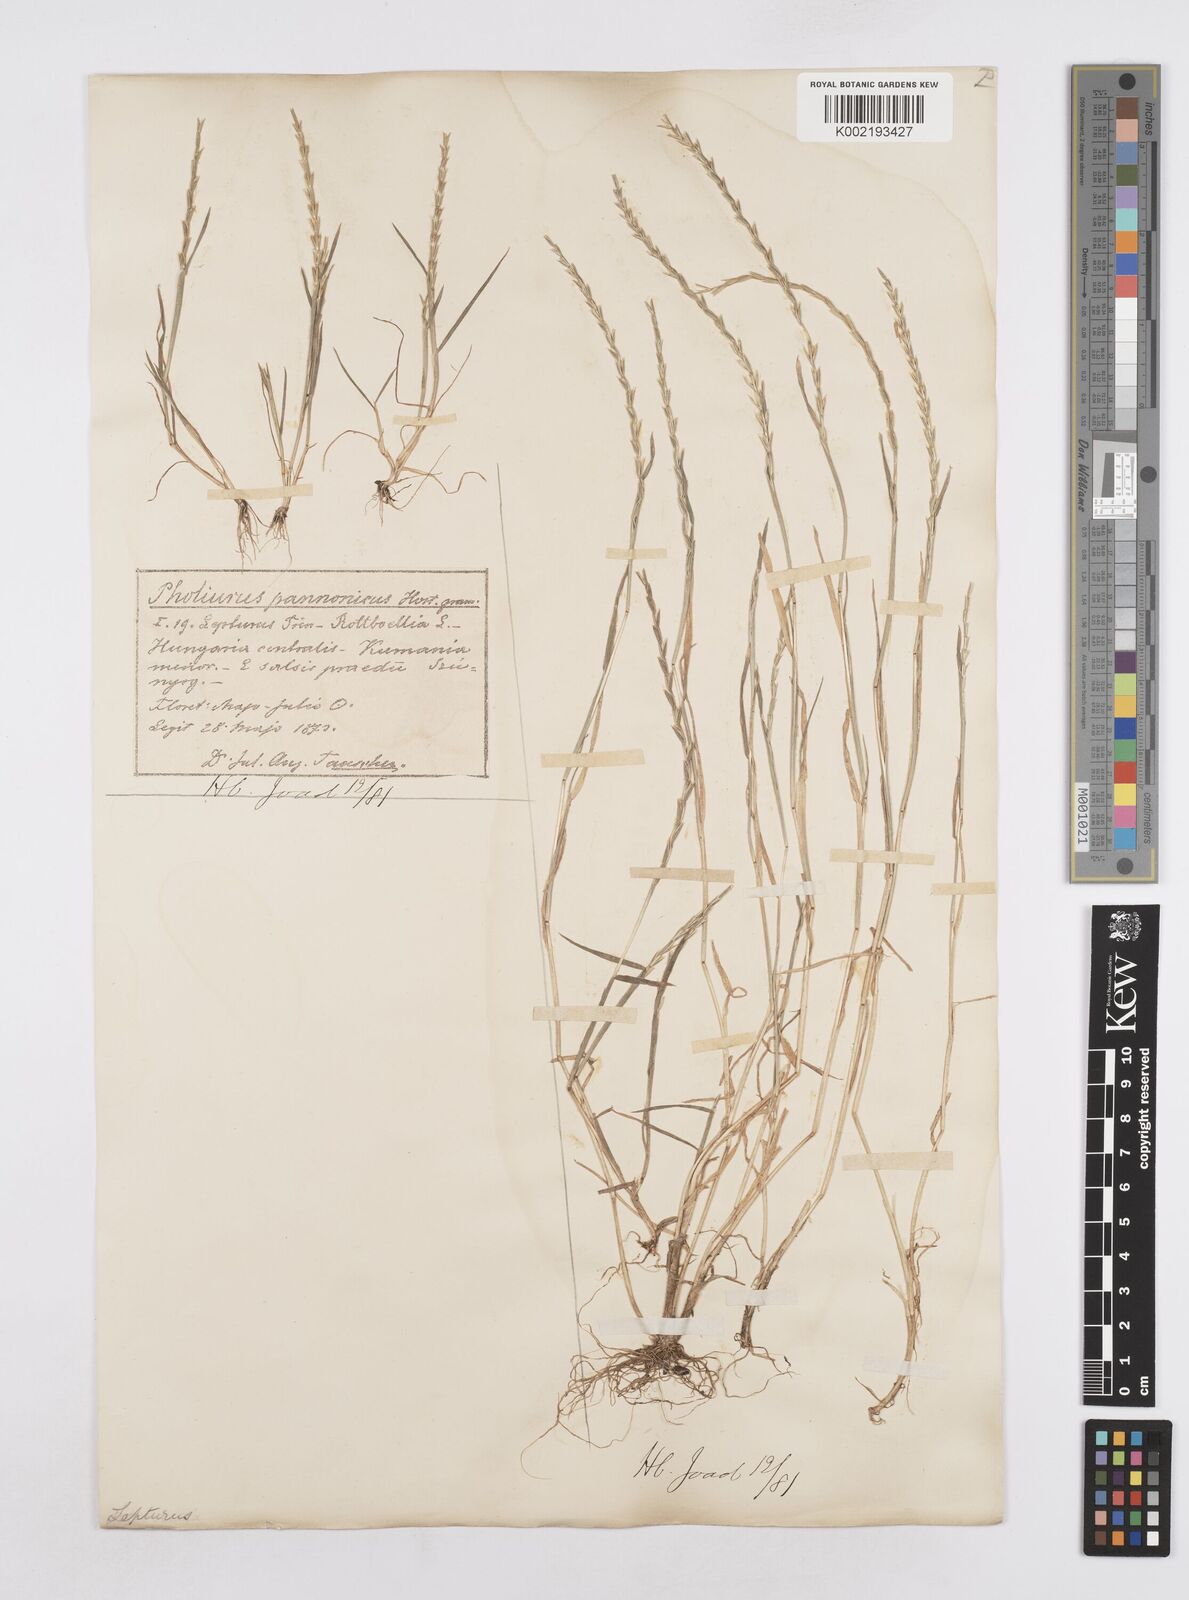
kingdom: Plantae
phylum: Tracheophyta
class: Liliopsida
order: Poales
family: Poaceae
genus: Pholiurus
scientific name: Pholiurus pannonicus
